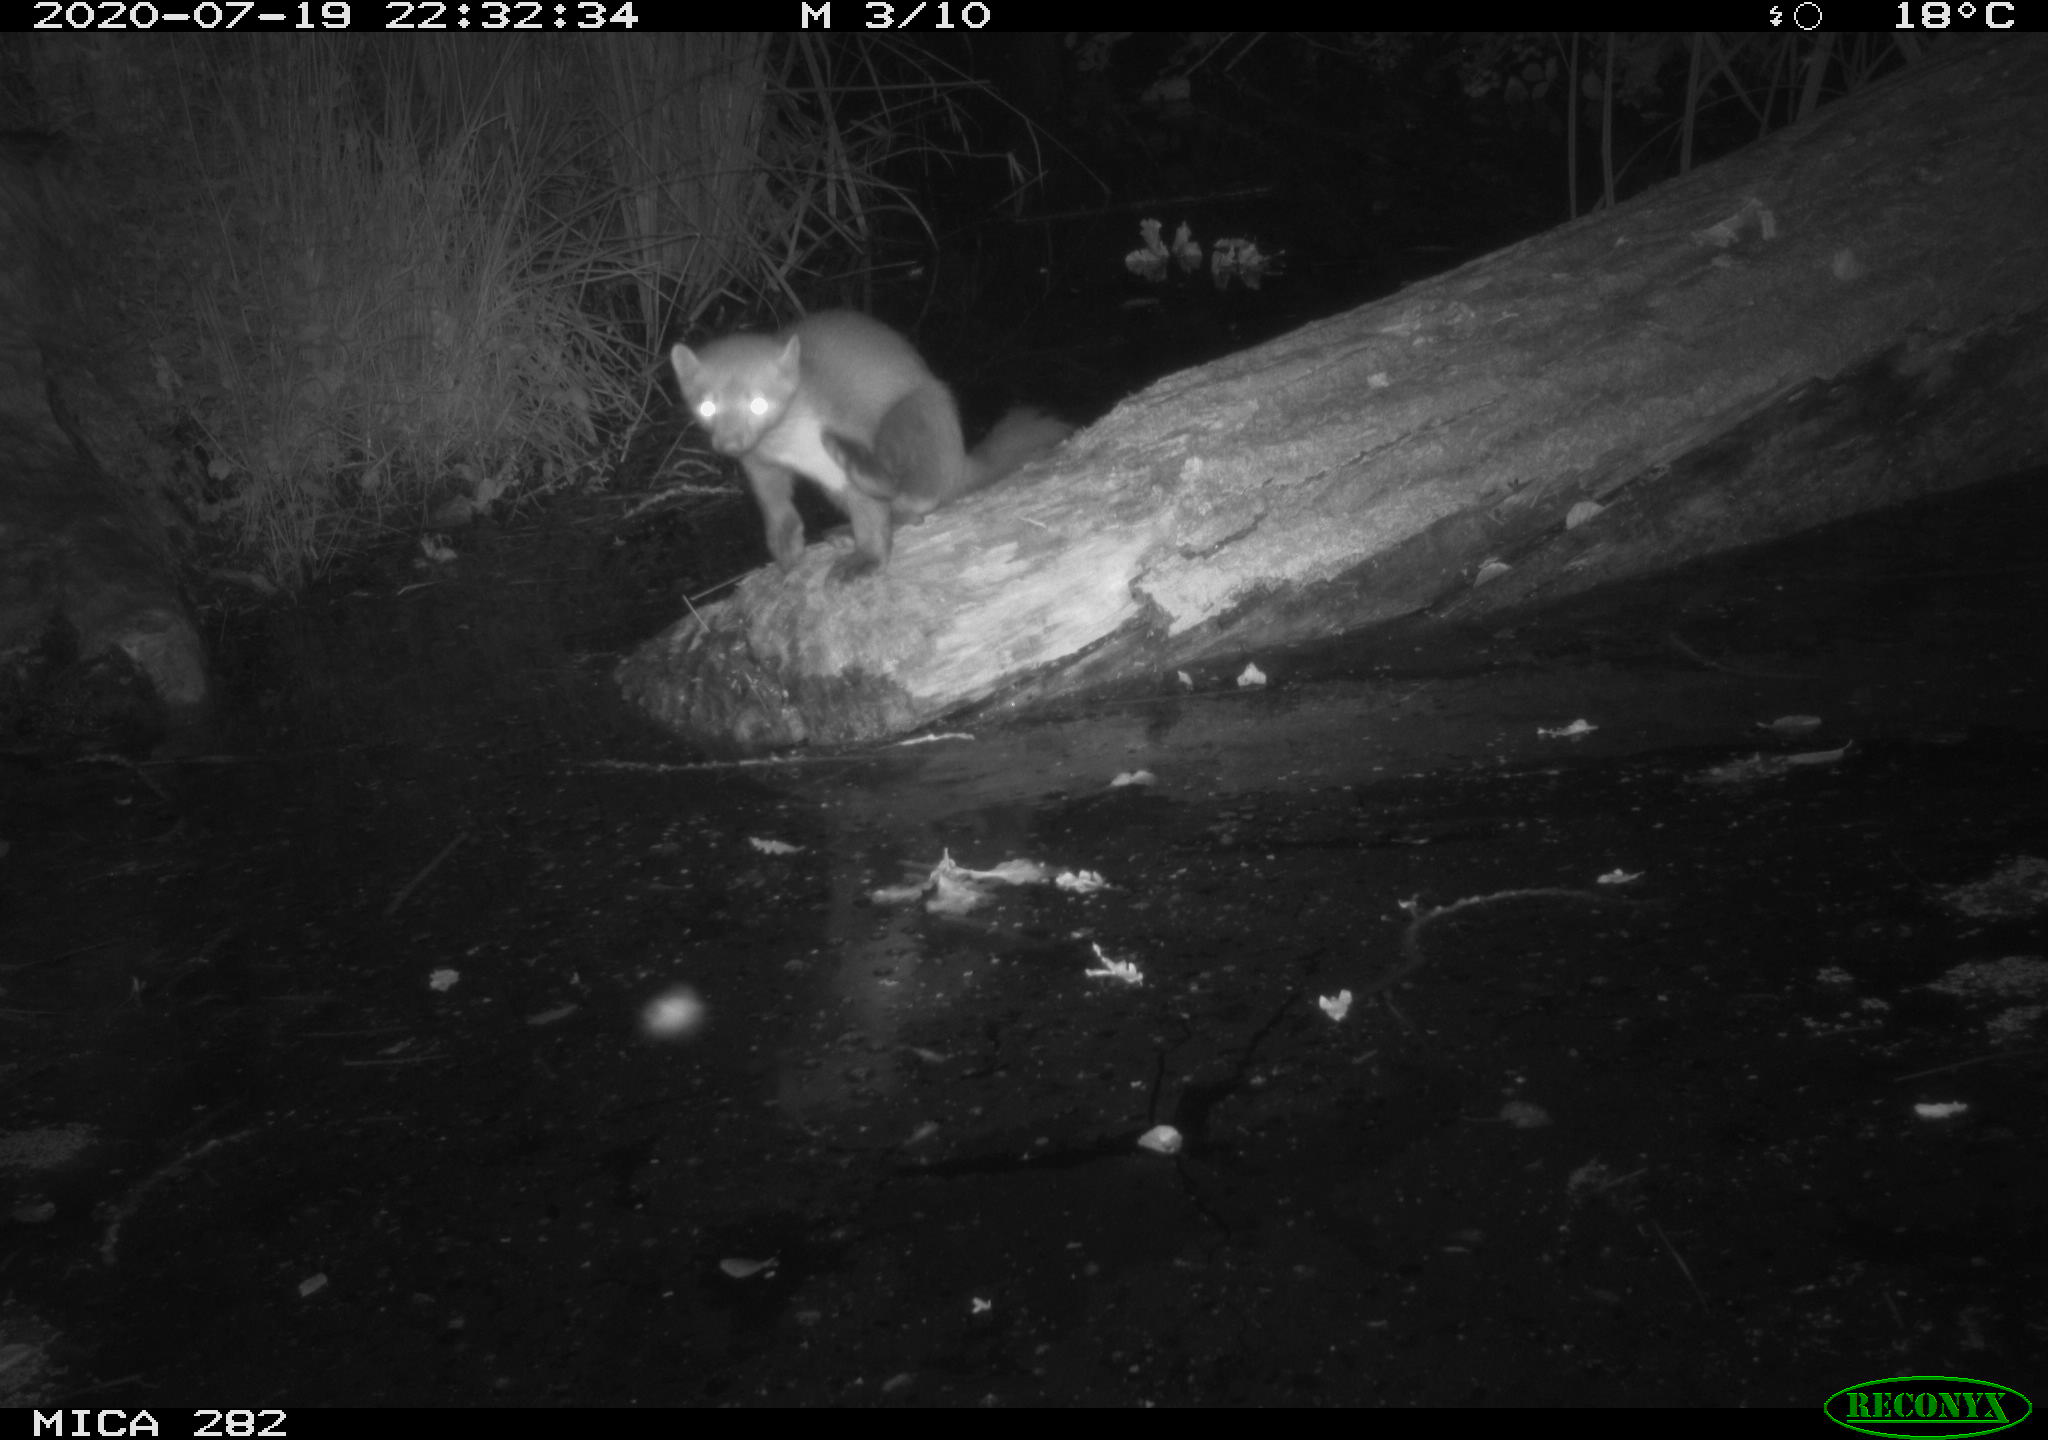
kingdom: Animalia
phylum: Chordata
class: Mammalia
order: Carnivora
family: Mustelidae
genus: Martes
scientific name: Martes foina
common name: Beech marten
